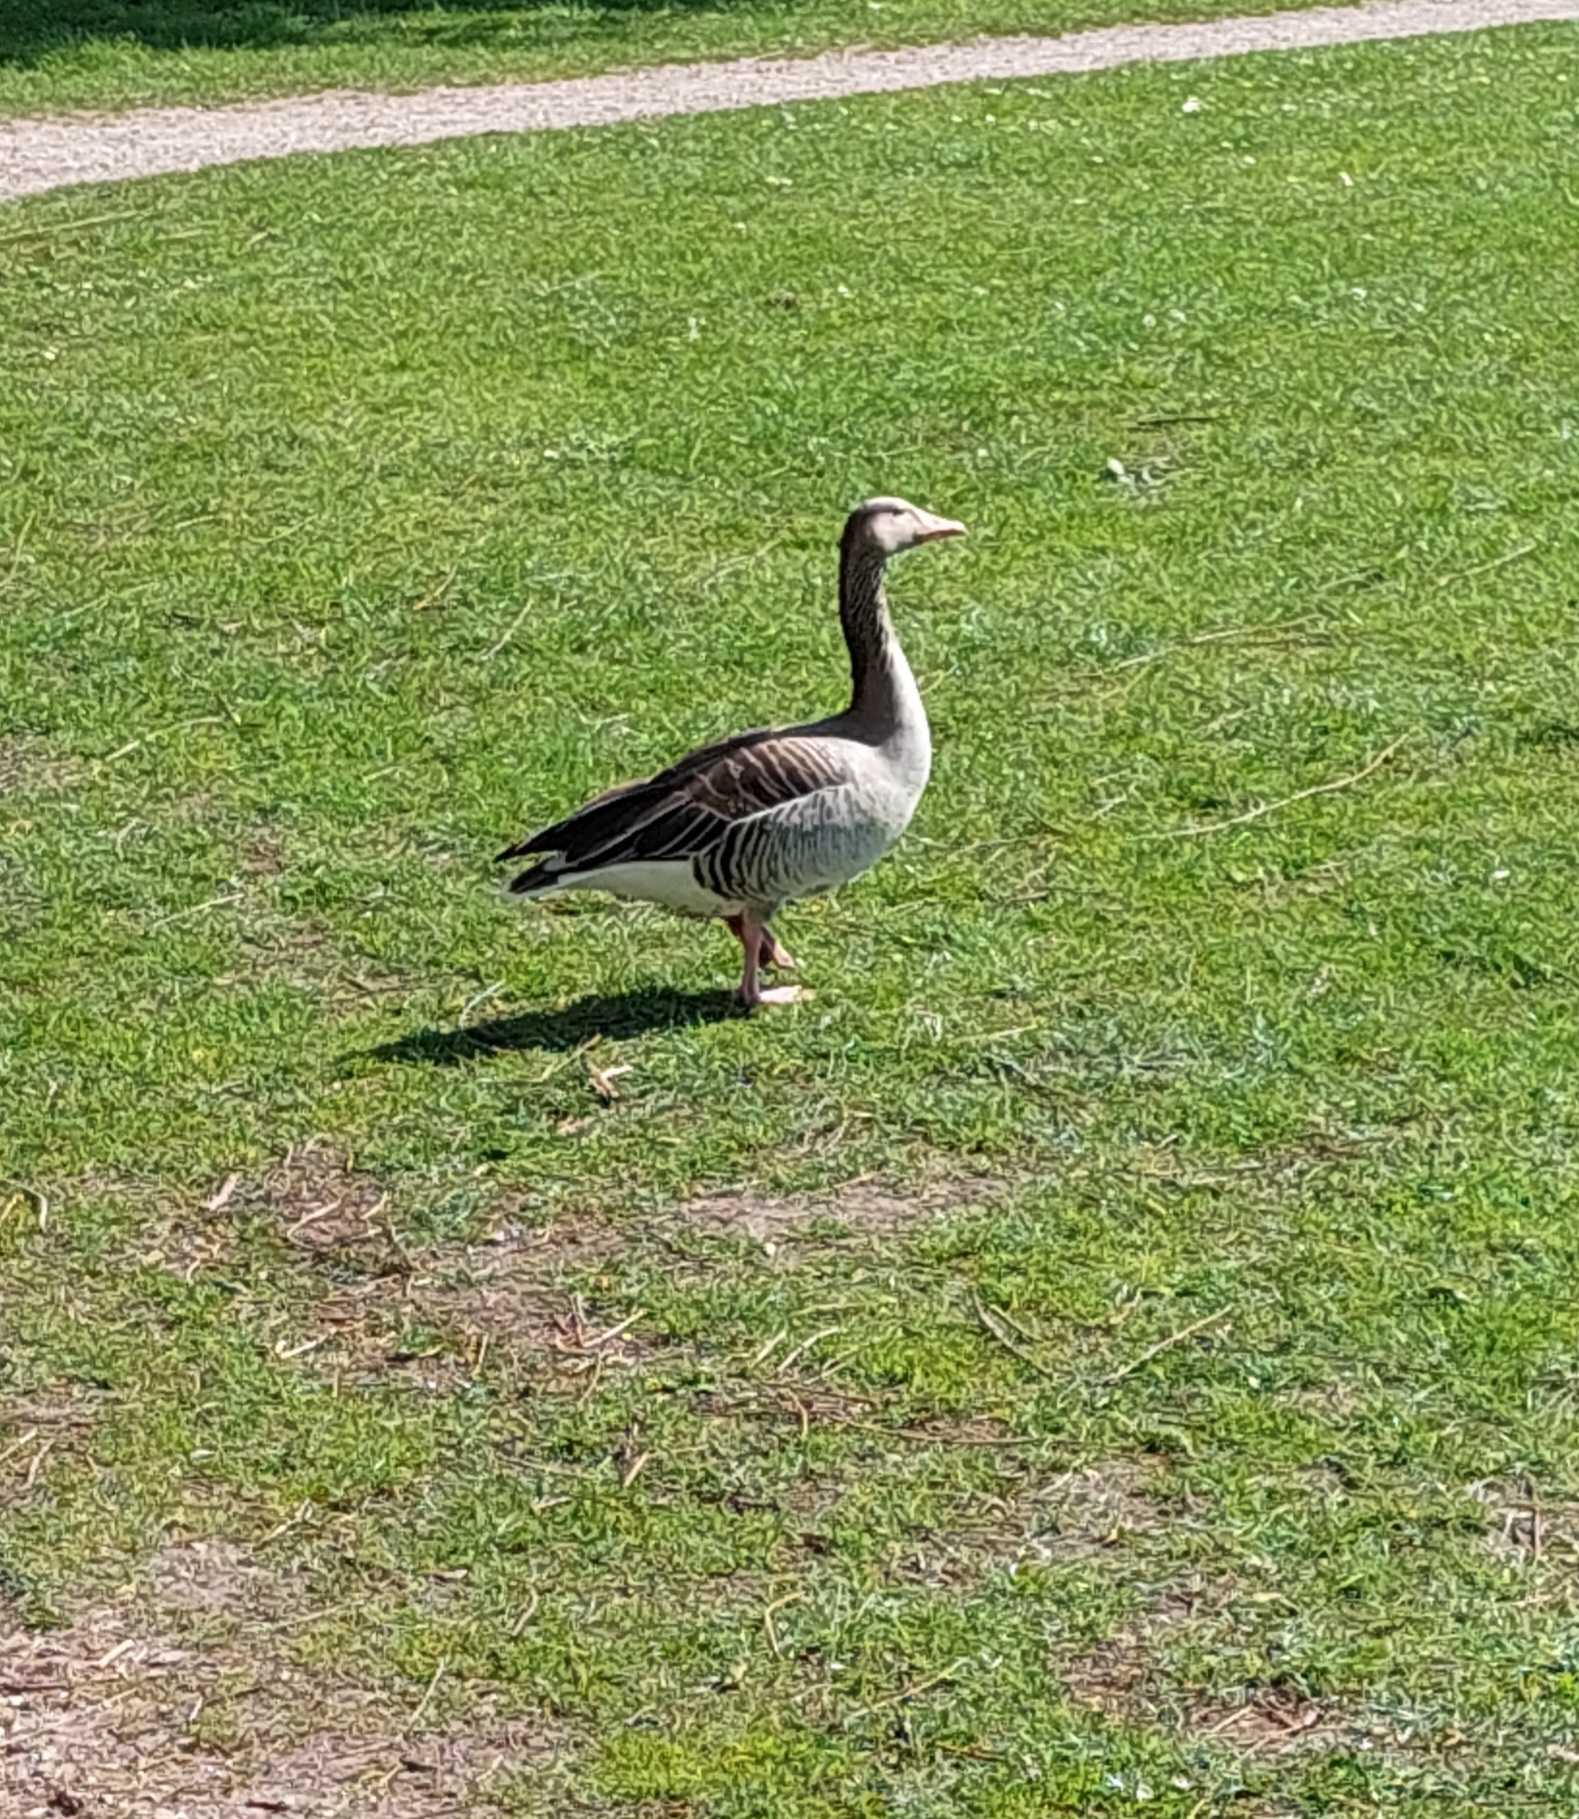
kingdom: Animalia
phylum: Chordata
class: Aves
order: Anseriformes
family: Anatidae
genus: Anser
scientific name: Anser anser
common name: Grågås
